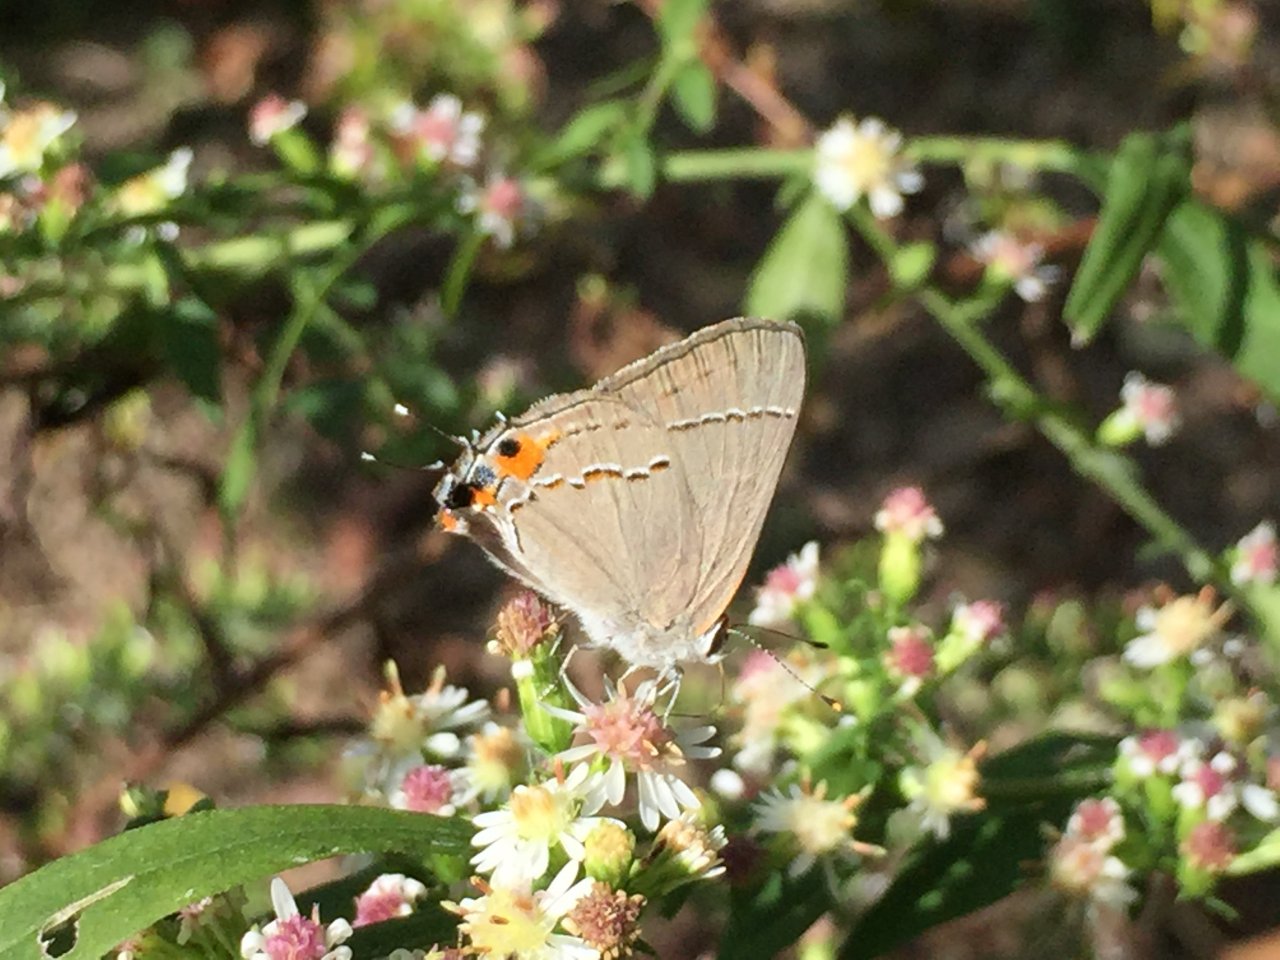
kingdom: Animalia
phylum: Arthropoda
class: Insecta
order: Lepidoptera
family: Lycaenidae
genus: Strymon
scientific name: Strymon melinus
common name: Gray Hairstreak
